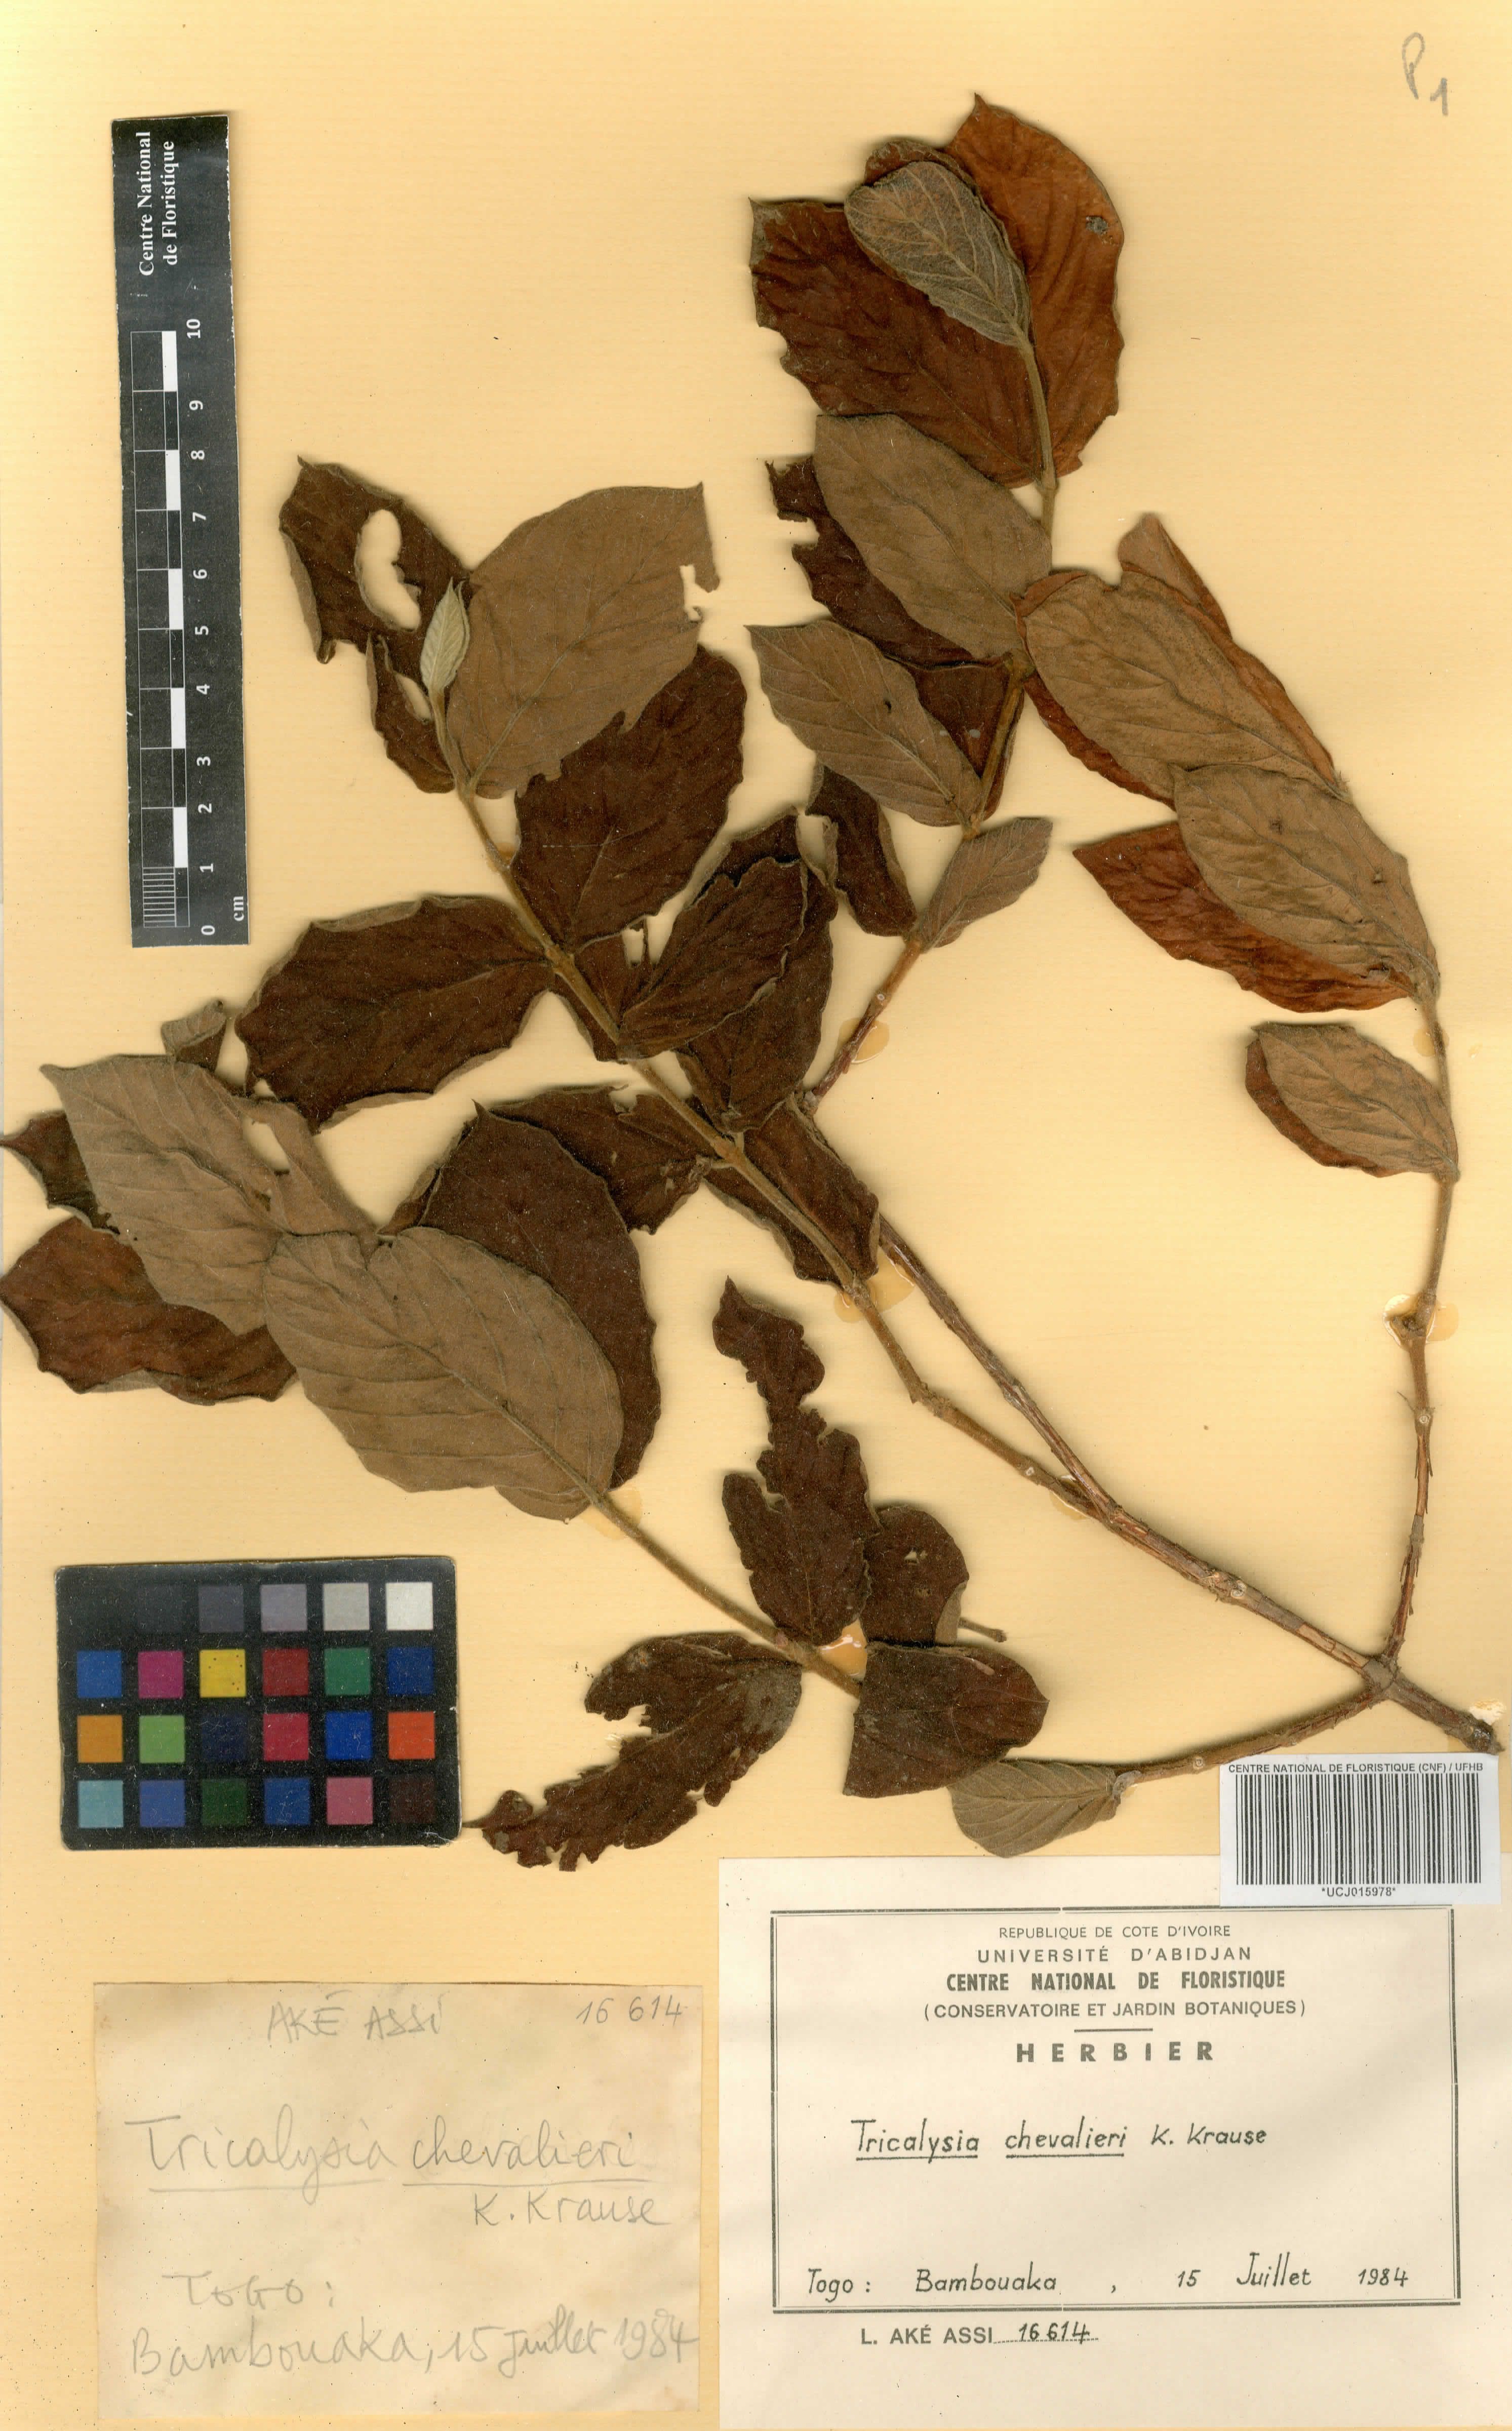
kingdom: Plantae
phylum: Tracheophyta
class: Magnoliopsida
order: Gentianales
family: Rubiaceae
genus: Empogona
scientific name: Empogona bracteata
